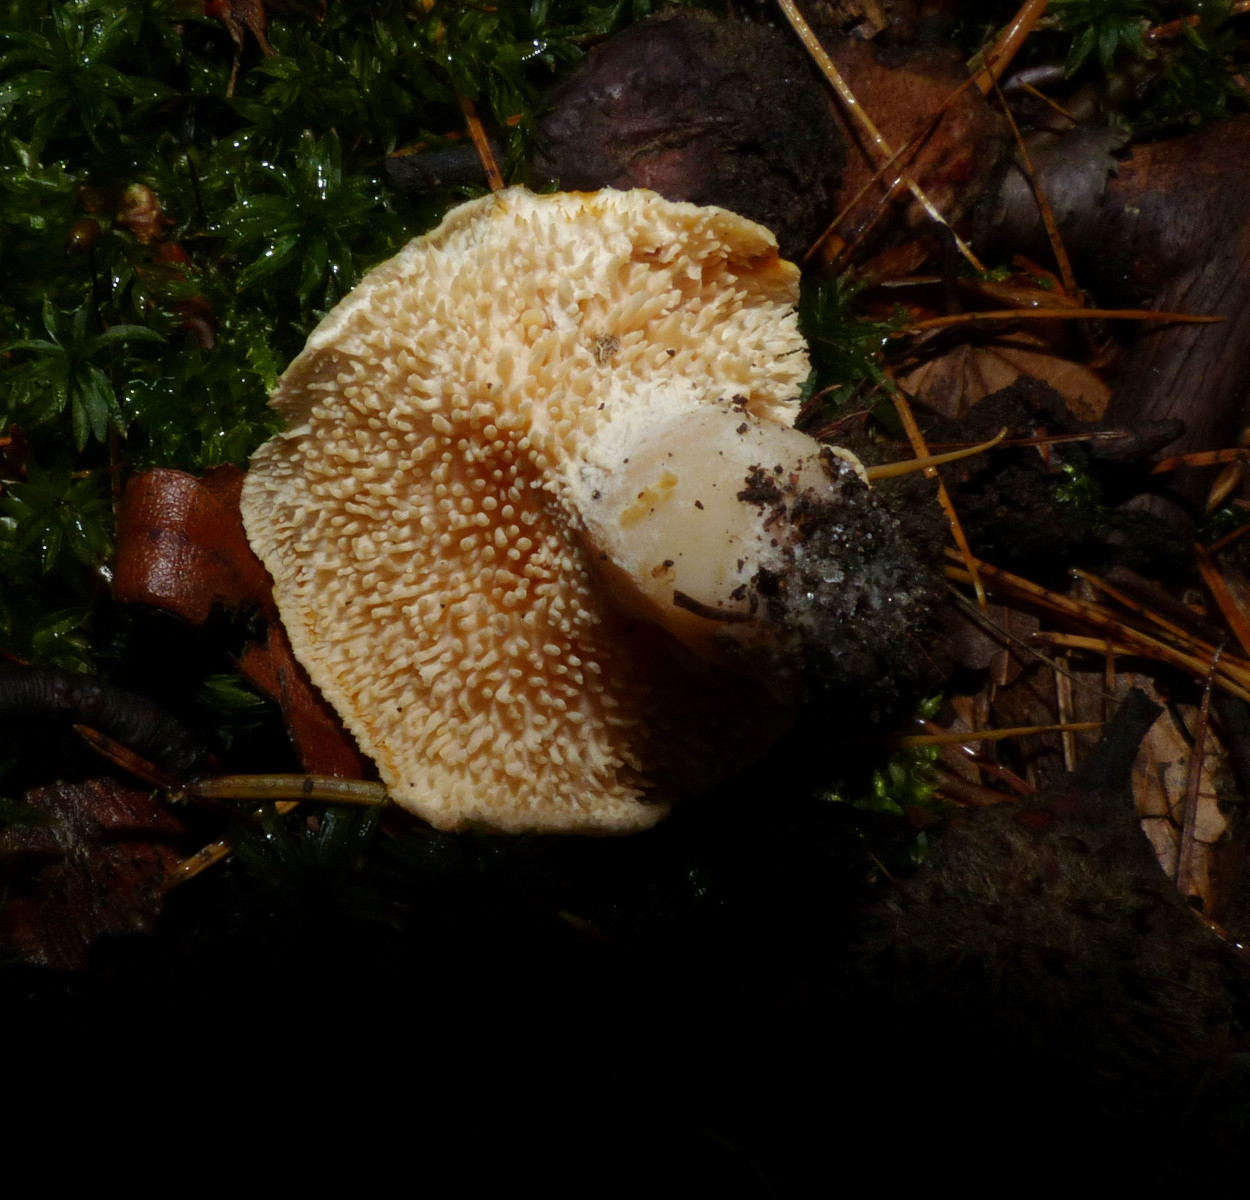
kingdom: Fungi
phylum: Basidiomycota
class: Agaricomycetes
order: Cantharellales
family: Hydnaceae
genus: Hydnum
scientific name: Hydnum
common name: pigsvamp
